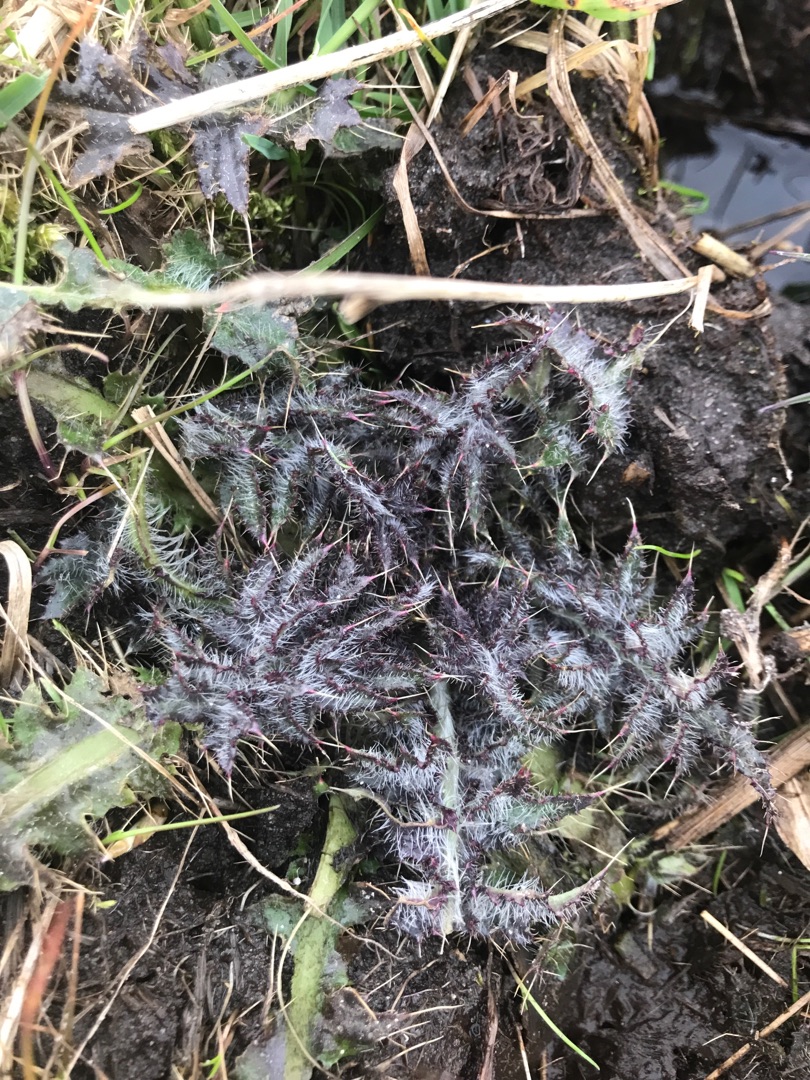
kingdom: Plantae
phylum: Tracheophyta
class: Magnoliopsida
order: Asterales
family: Asteraceae
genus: Cirsium
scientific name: Cirsium palustre
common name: Kær-tidsel
